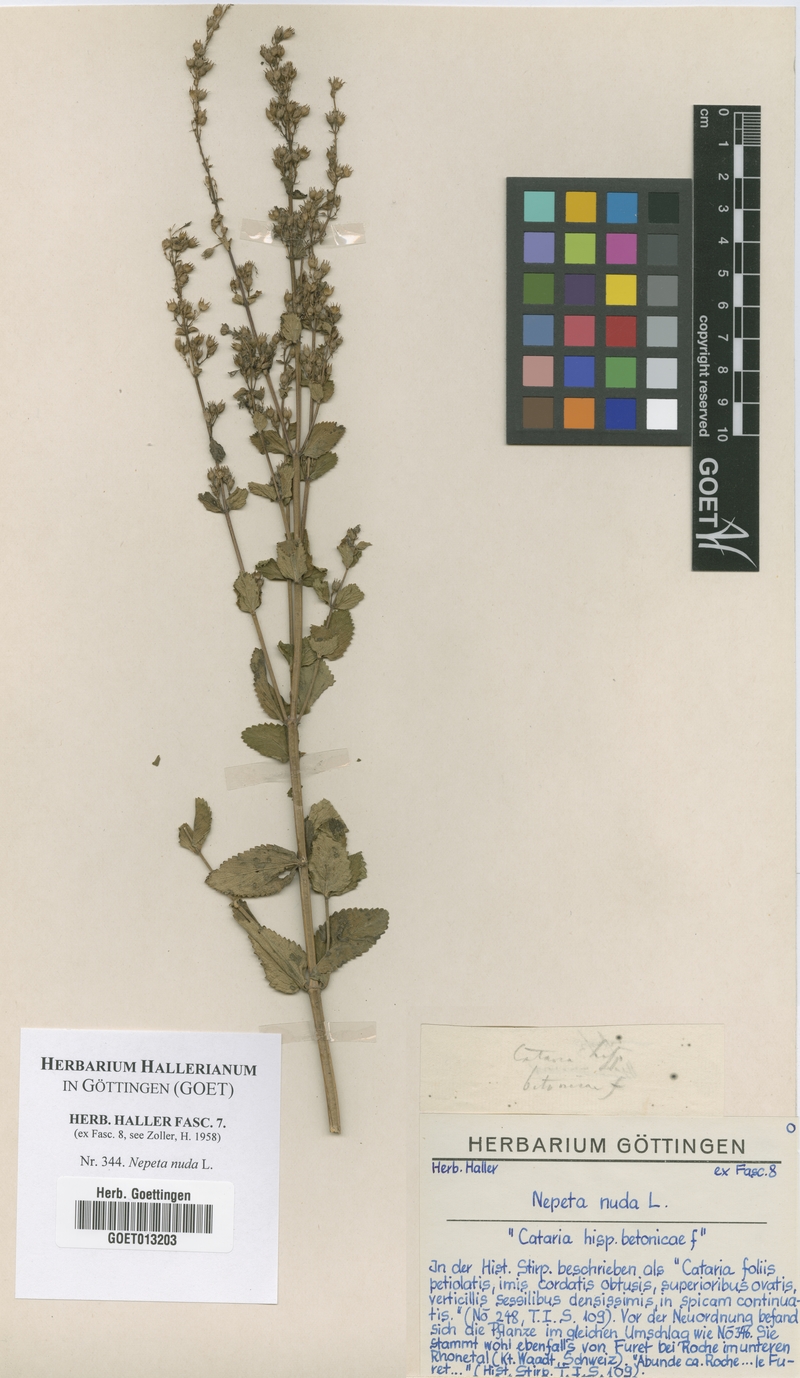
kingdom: Plantae
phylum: Tracheophyta
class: Magnoliopsida
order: Lamiales
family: Lamiaceae
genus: Nepeta
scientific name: Nepeta nuda
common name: Hairless catmint
